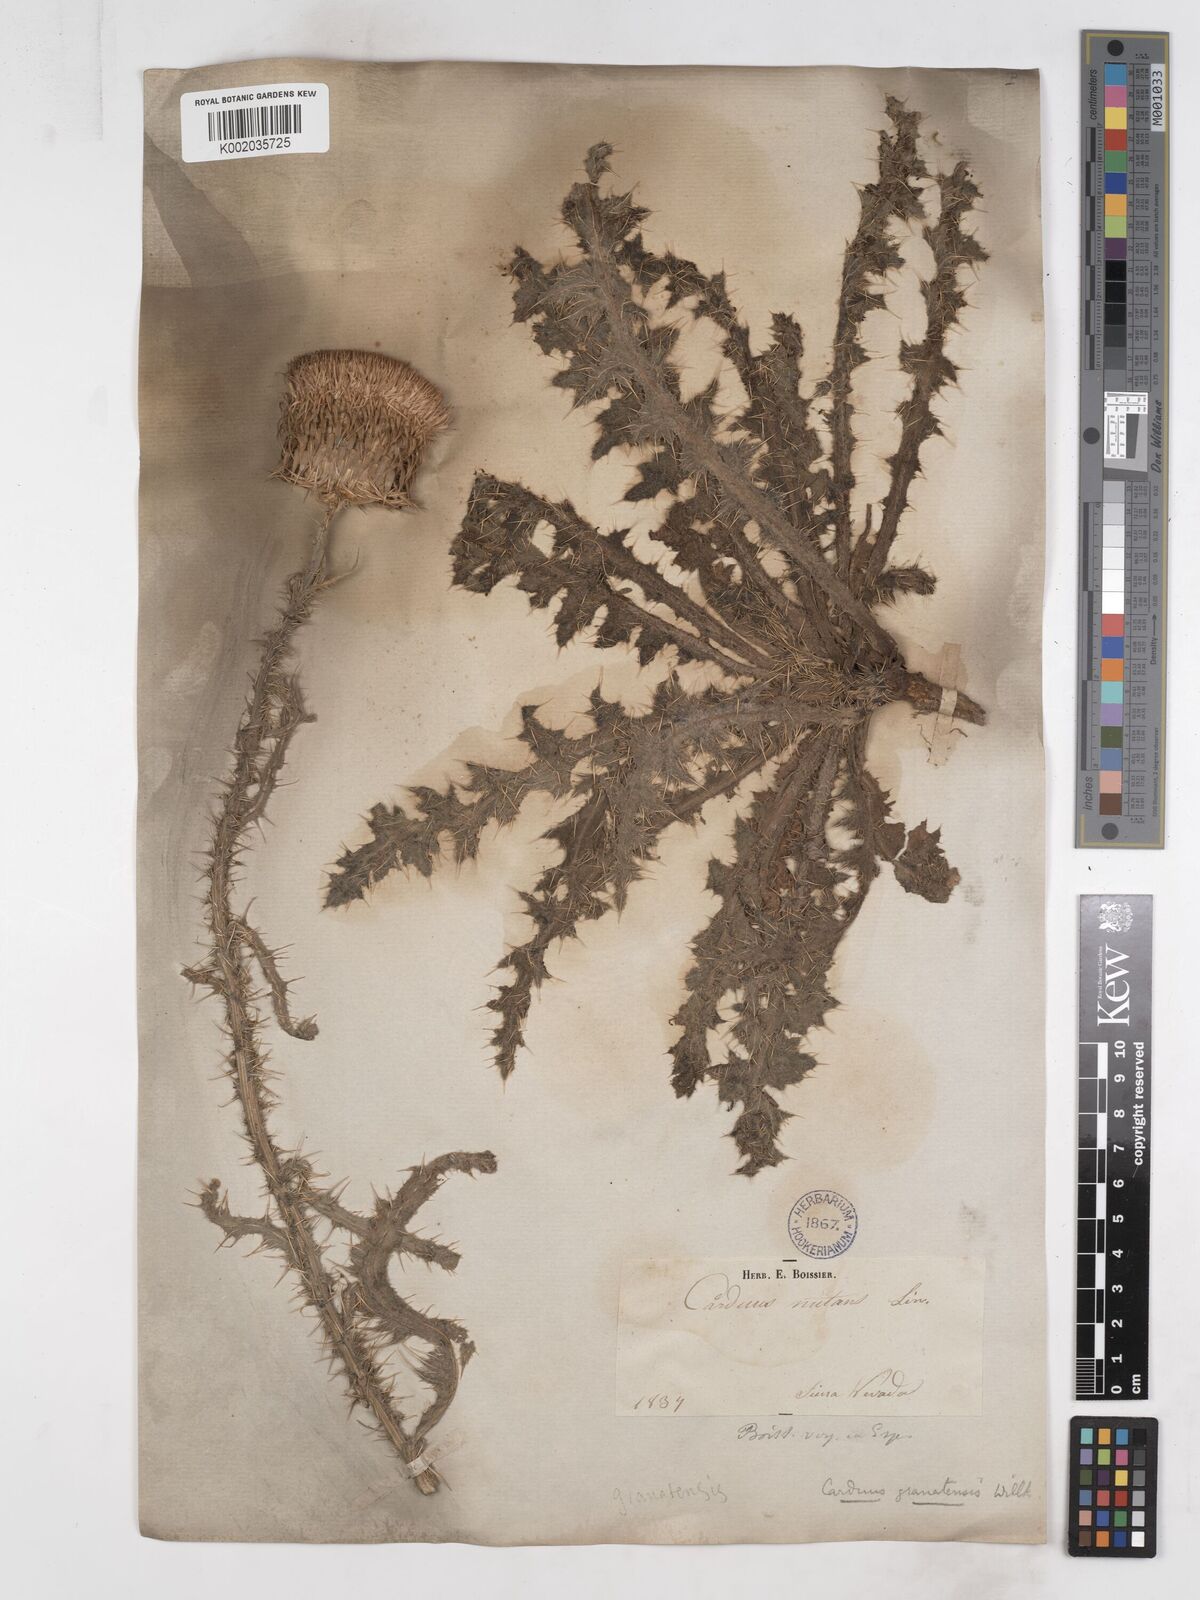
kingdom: Plantae
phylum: Tracheophyta
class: Magnoliopsida
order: Asterales
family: Asteraceae
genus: Carduus
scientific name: Carduus platypus
